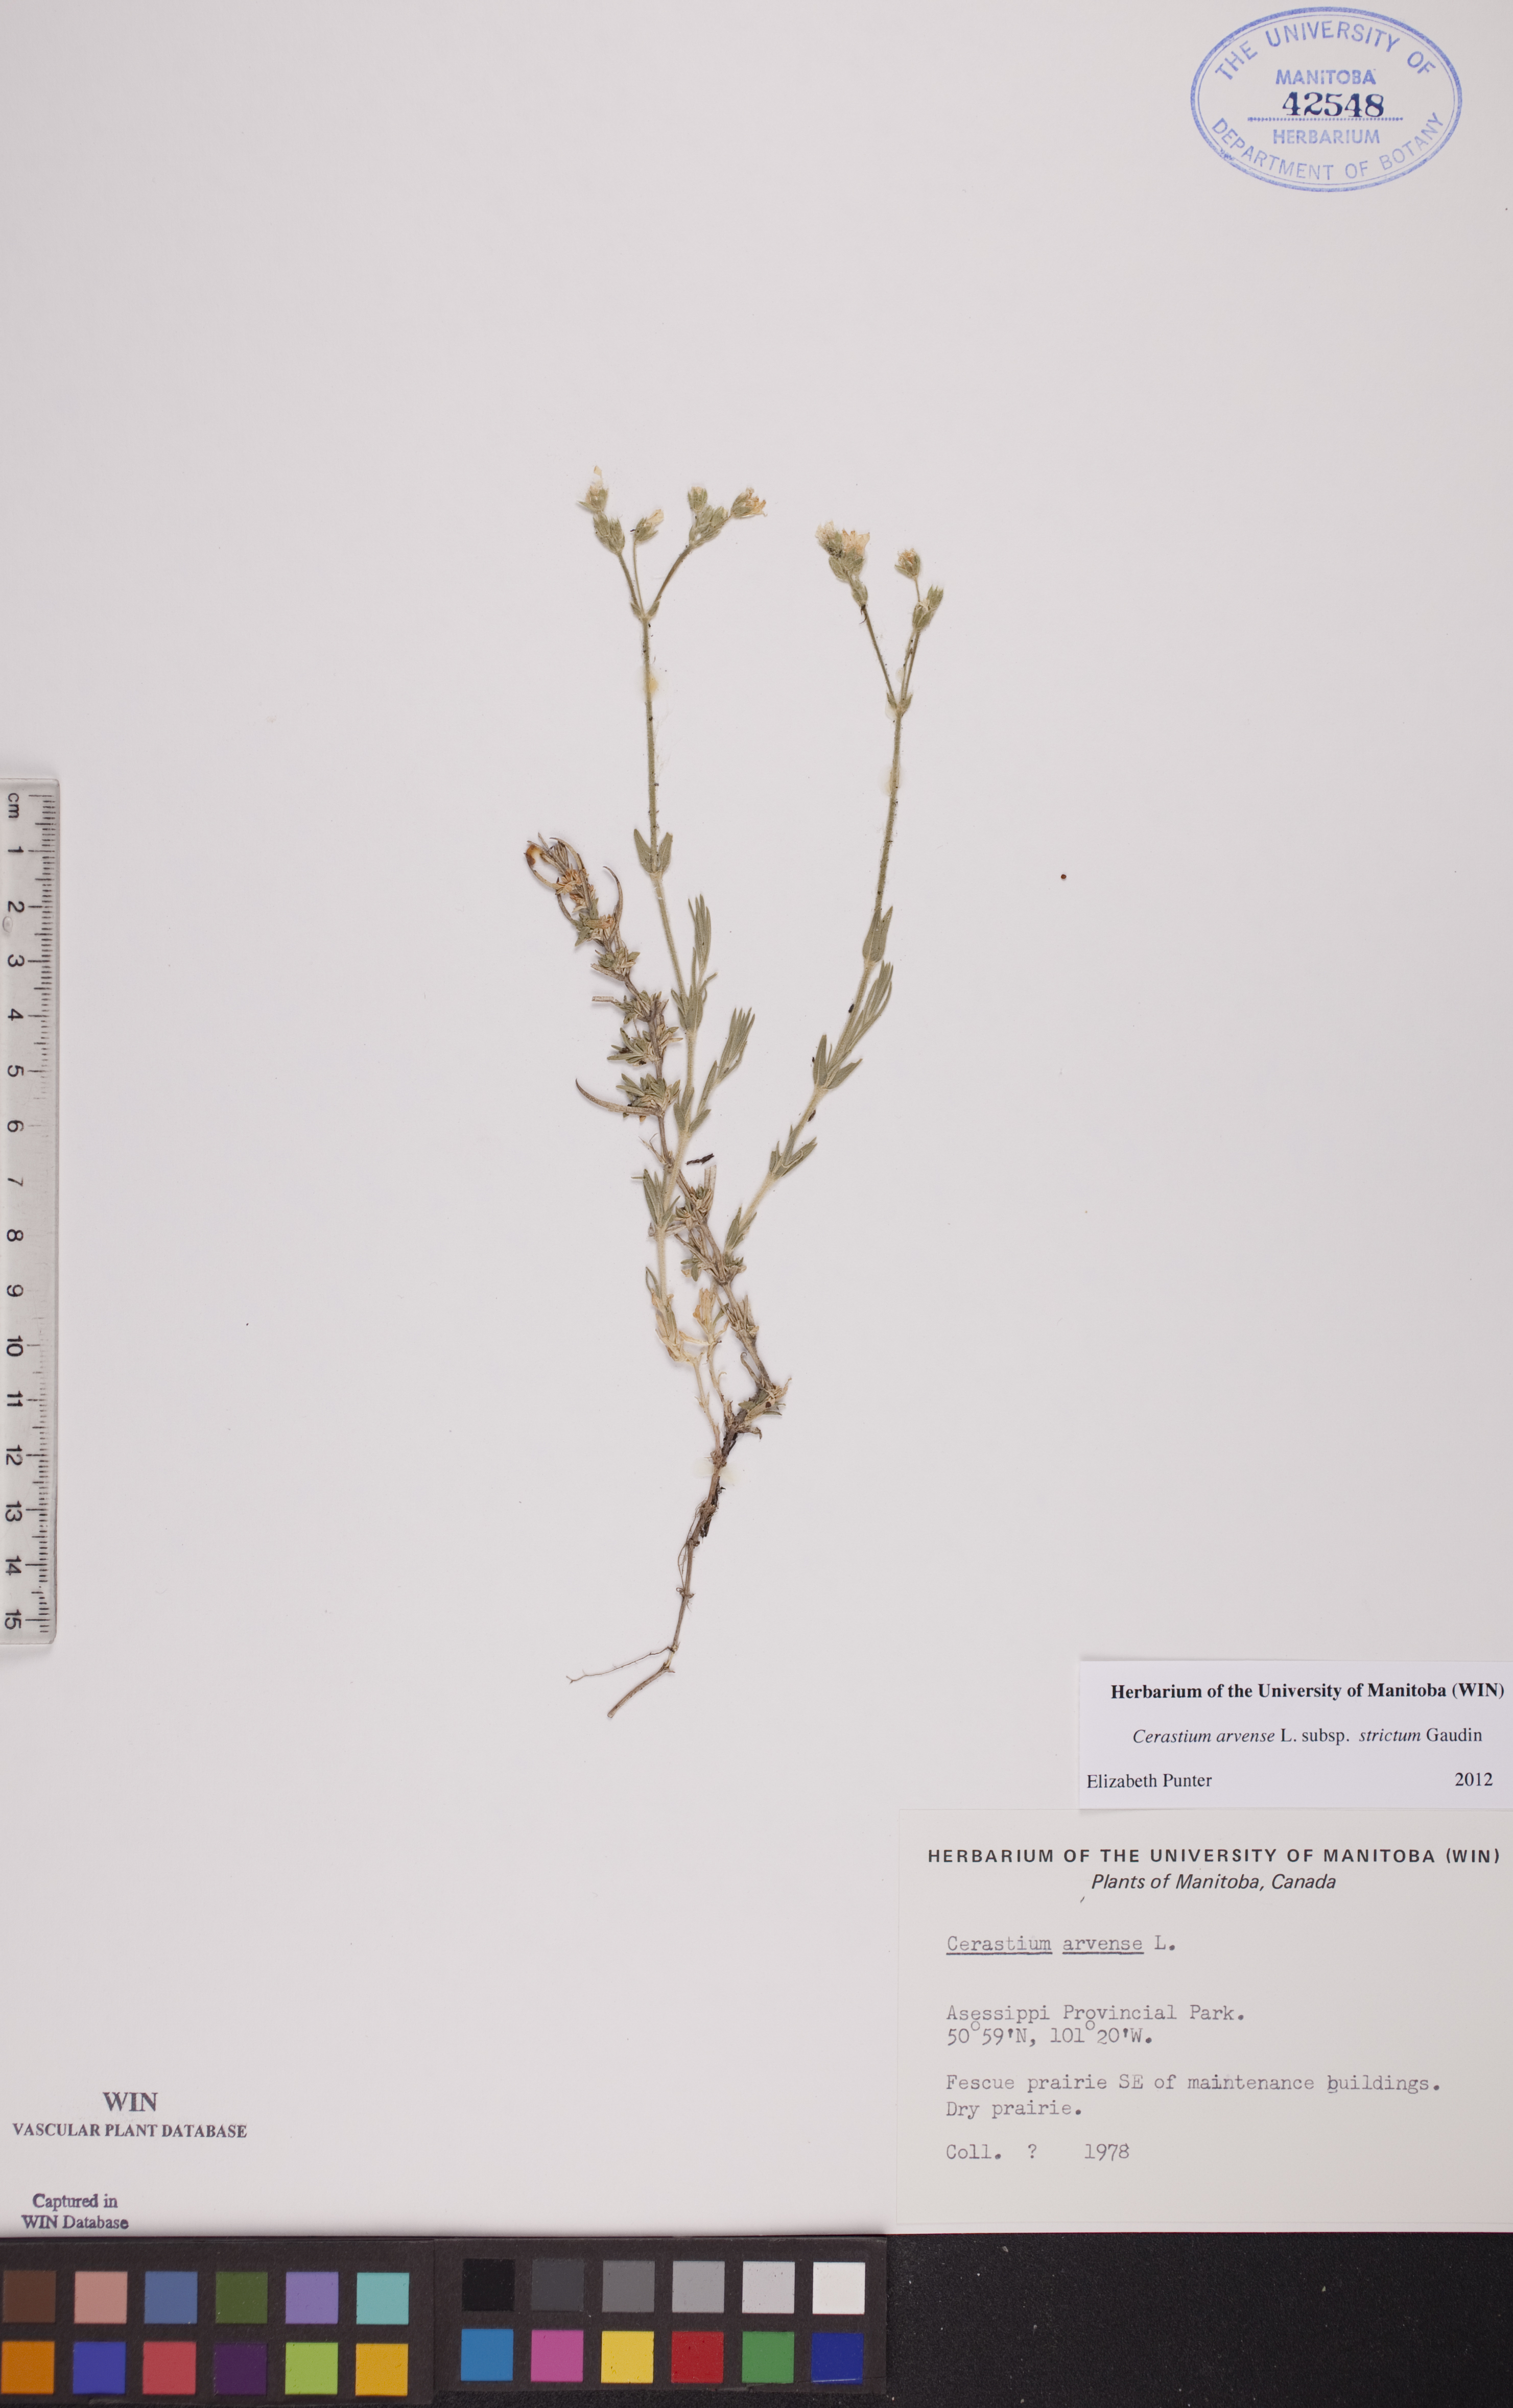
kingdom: Plantae
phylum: Tracheophyta
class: Magnoliopsida
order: Caryophyllales
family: Caryophyllaceae
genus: Cerastium
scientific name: Cerastium elongatum
